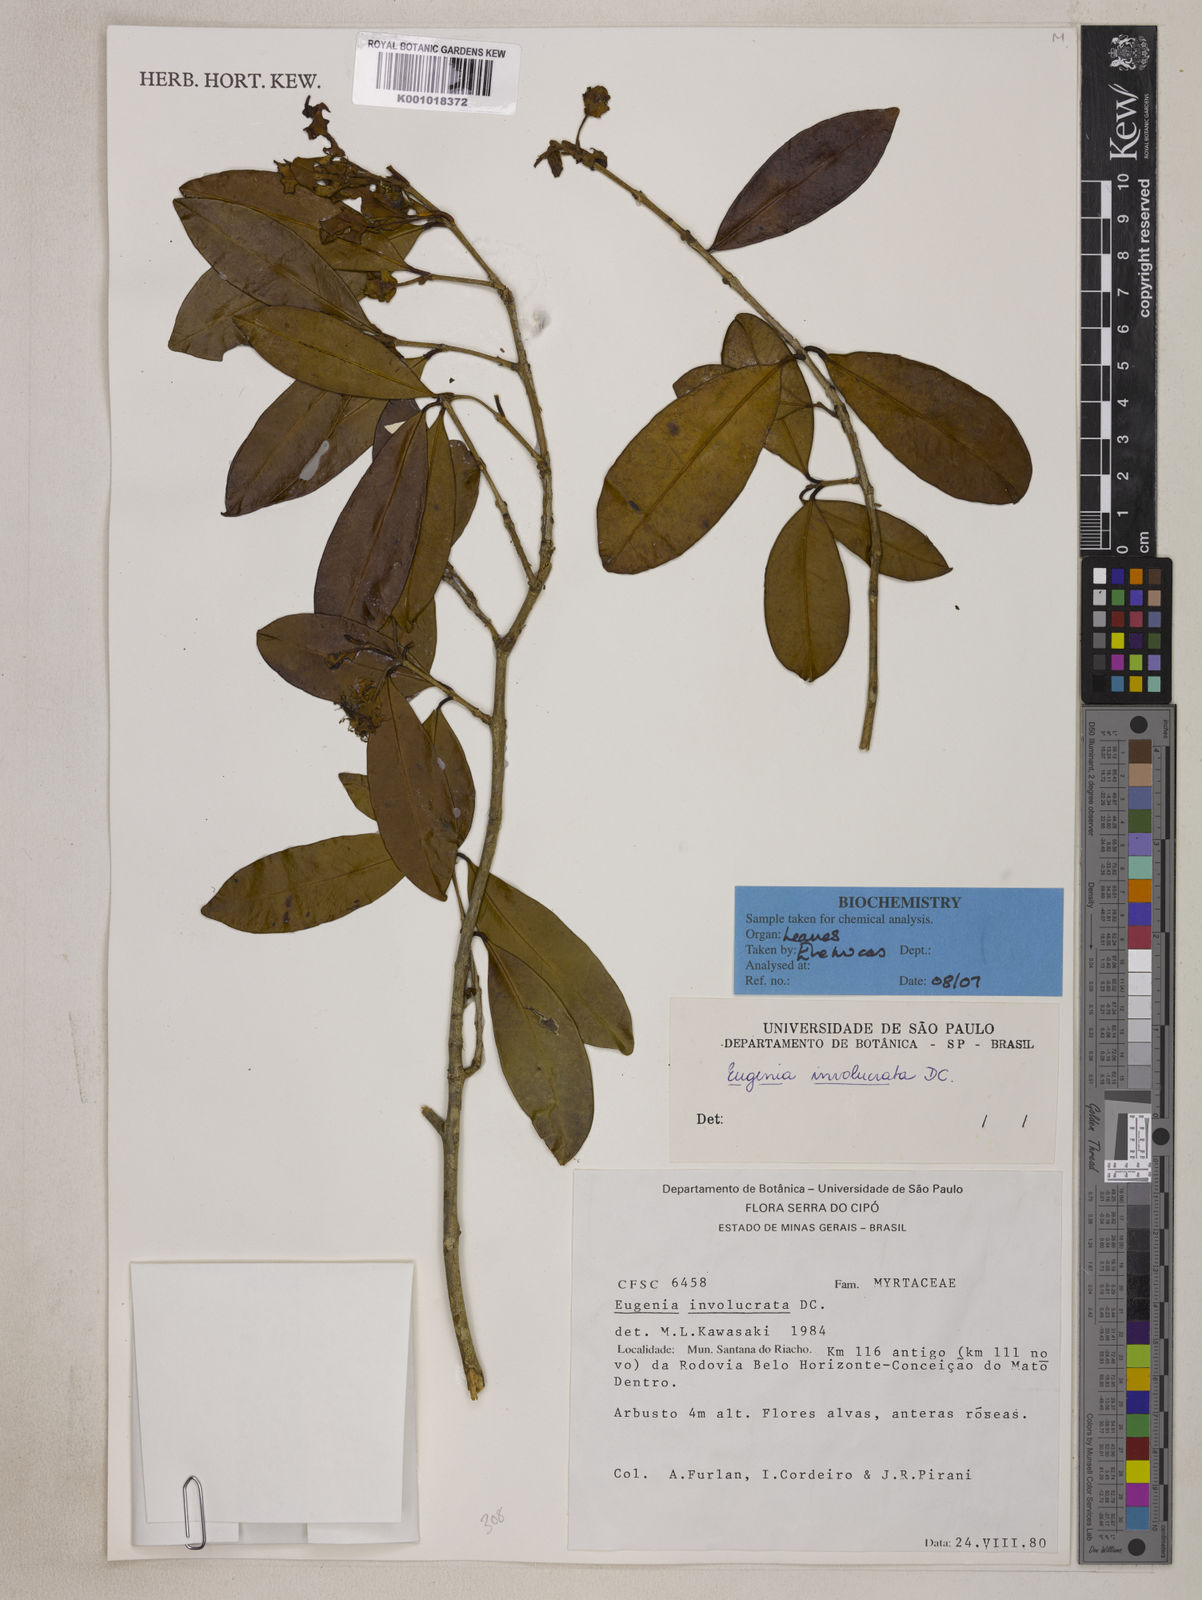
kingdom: Plantae
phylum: Tracheophyta
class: Magnoliopsida
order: Myrtales
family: Myrtaceae
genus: Eugenia
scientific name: Eugenia involucrata
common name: Cherry-of-the-rio grande
